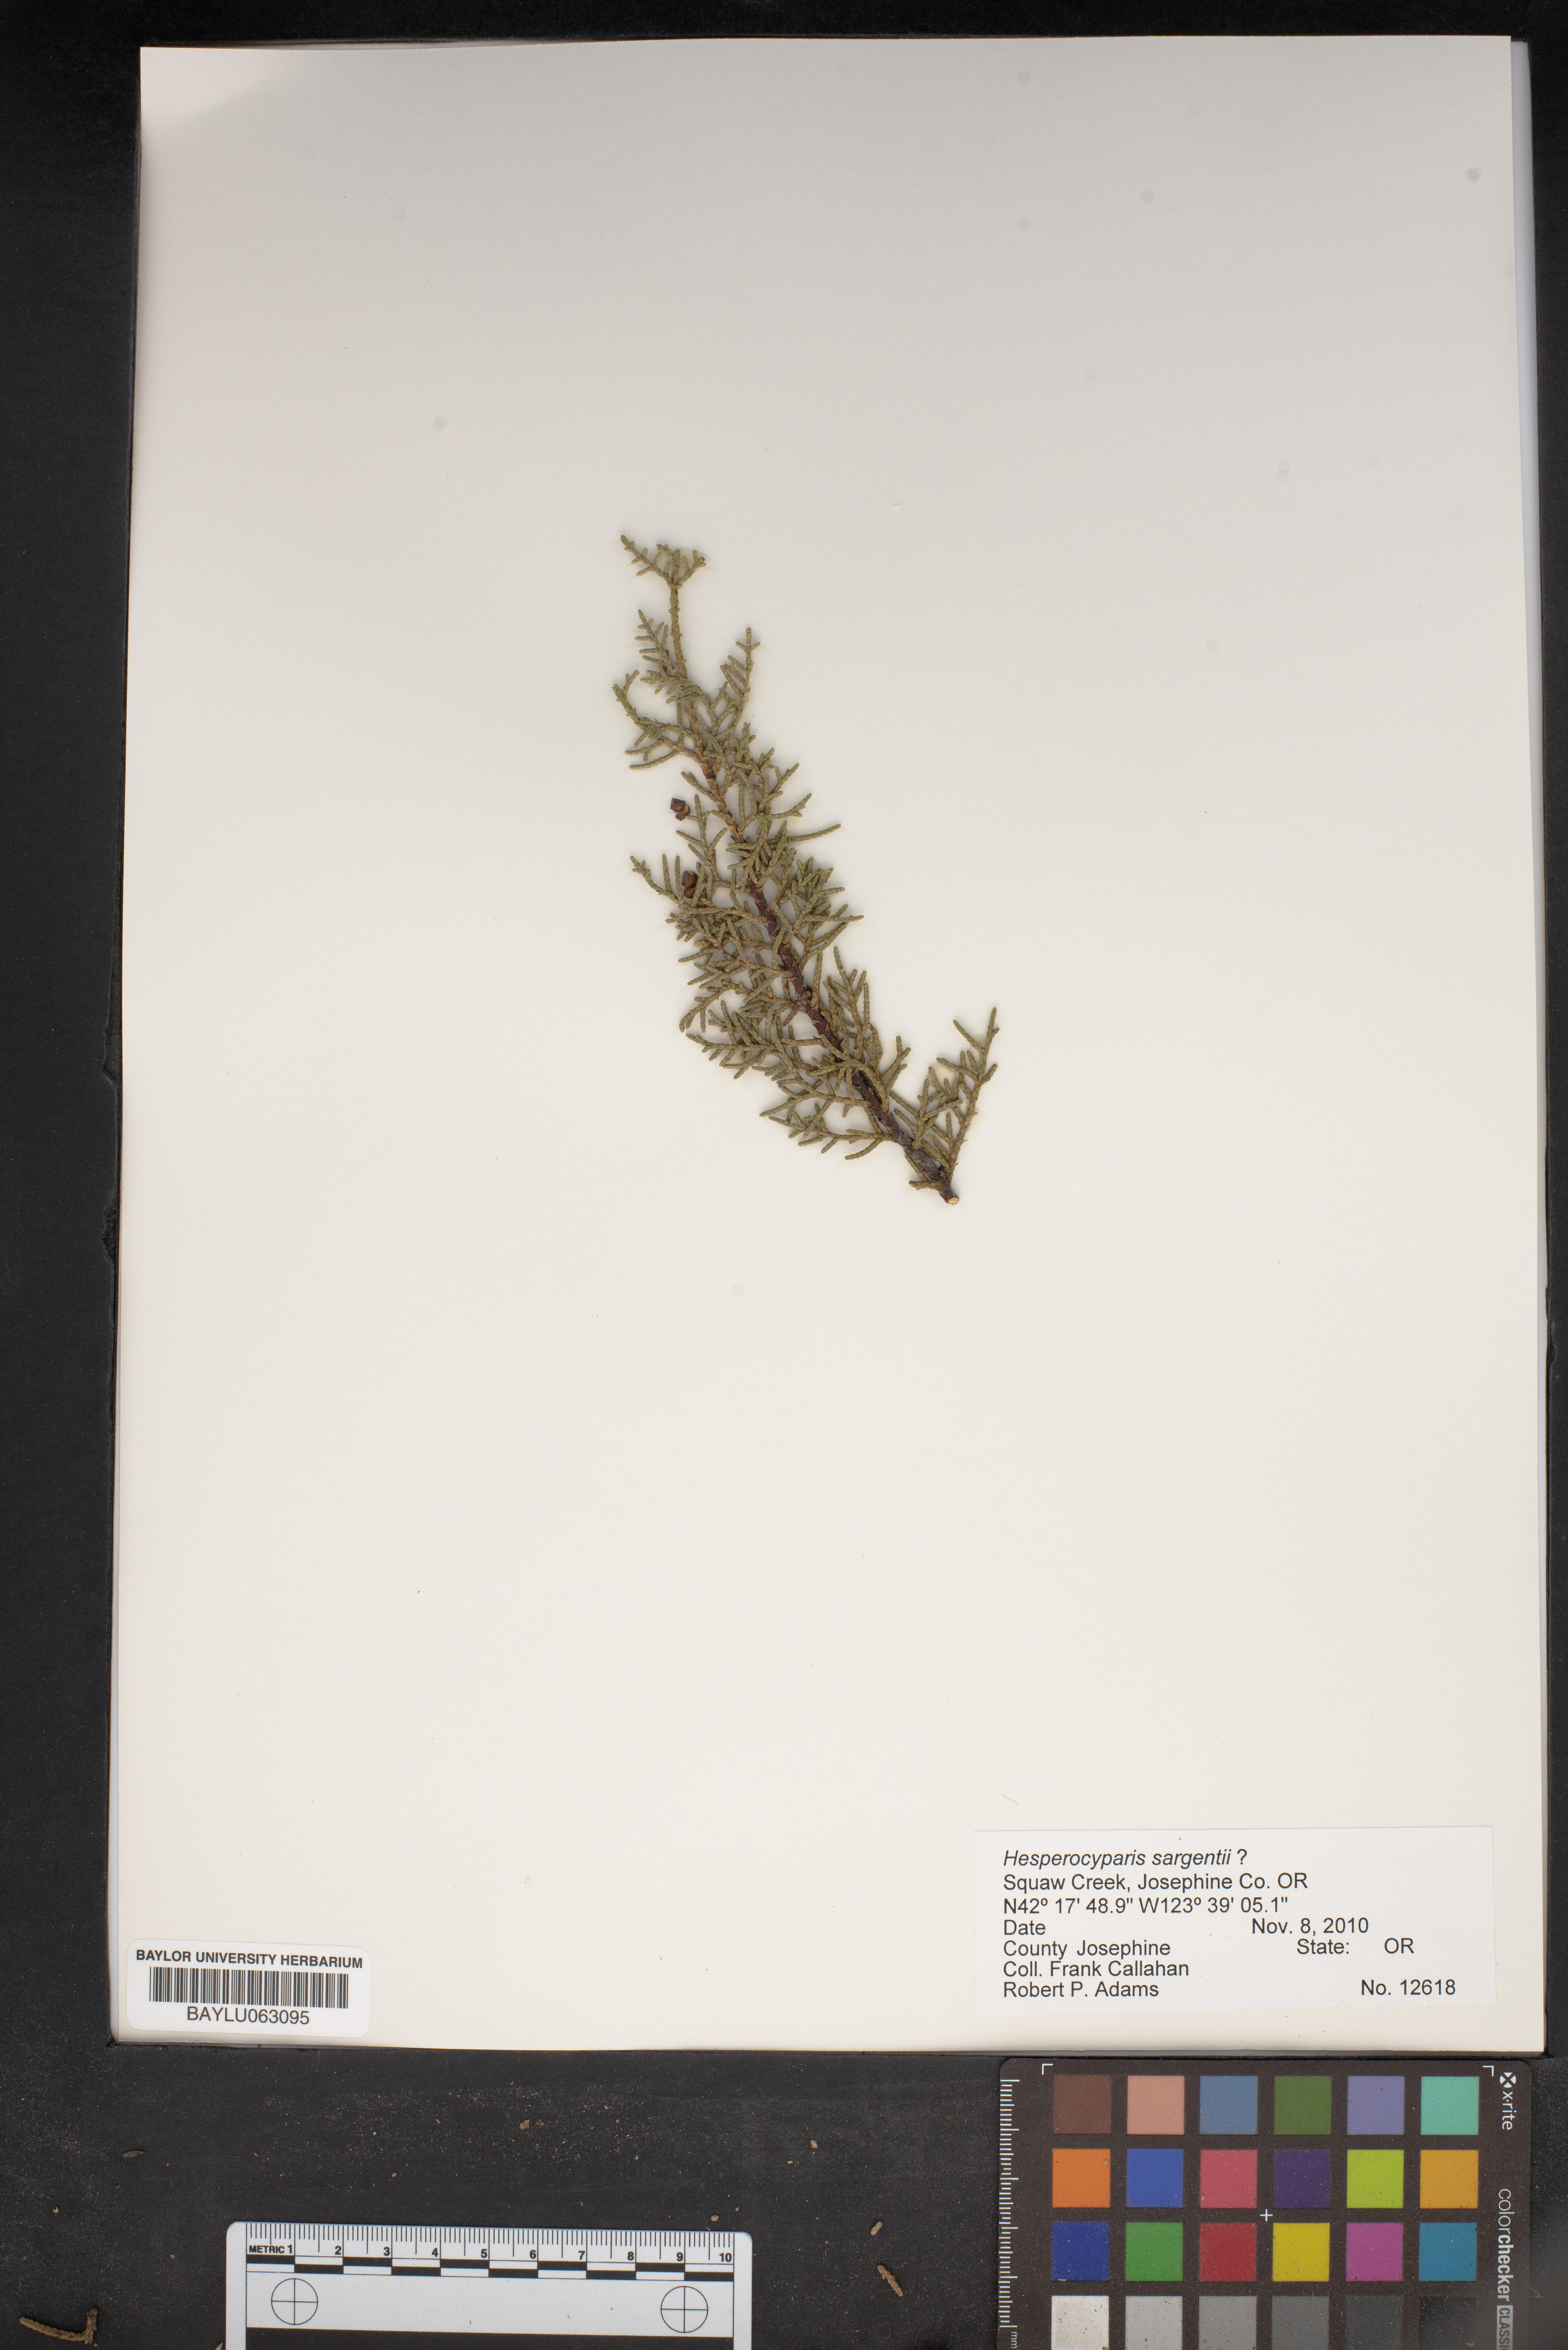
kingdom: Plantae
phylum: Tracheophyta
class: Pinopsida
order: Pinales
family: Cupressaceae
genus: Cupressus
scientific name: Cupressus sargentii
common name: Sargent cypress
